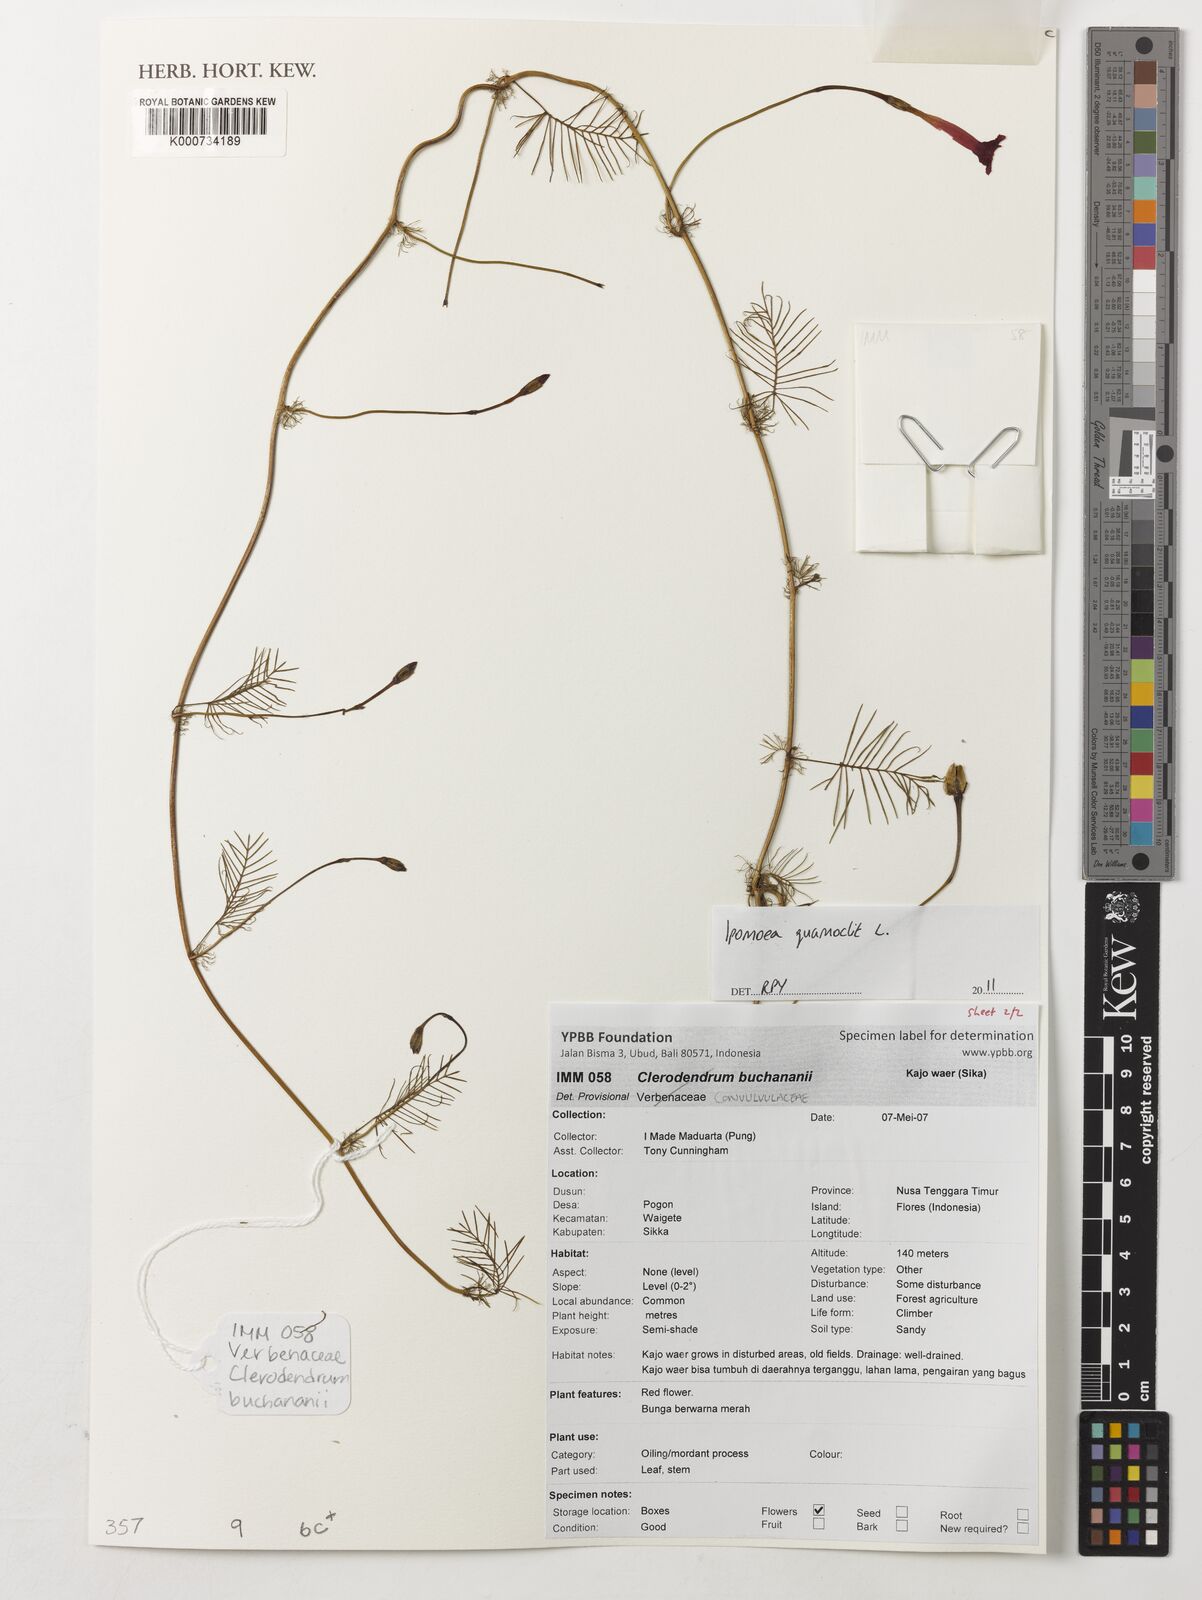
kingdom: Plantae
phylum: Tracheophyta
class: Magnoliopsida
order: Solanales
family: Convolvulaceae
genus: Ipomoea
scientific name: Ipomoea quamoclit
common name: Cypress vine
